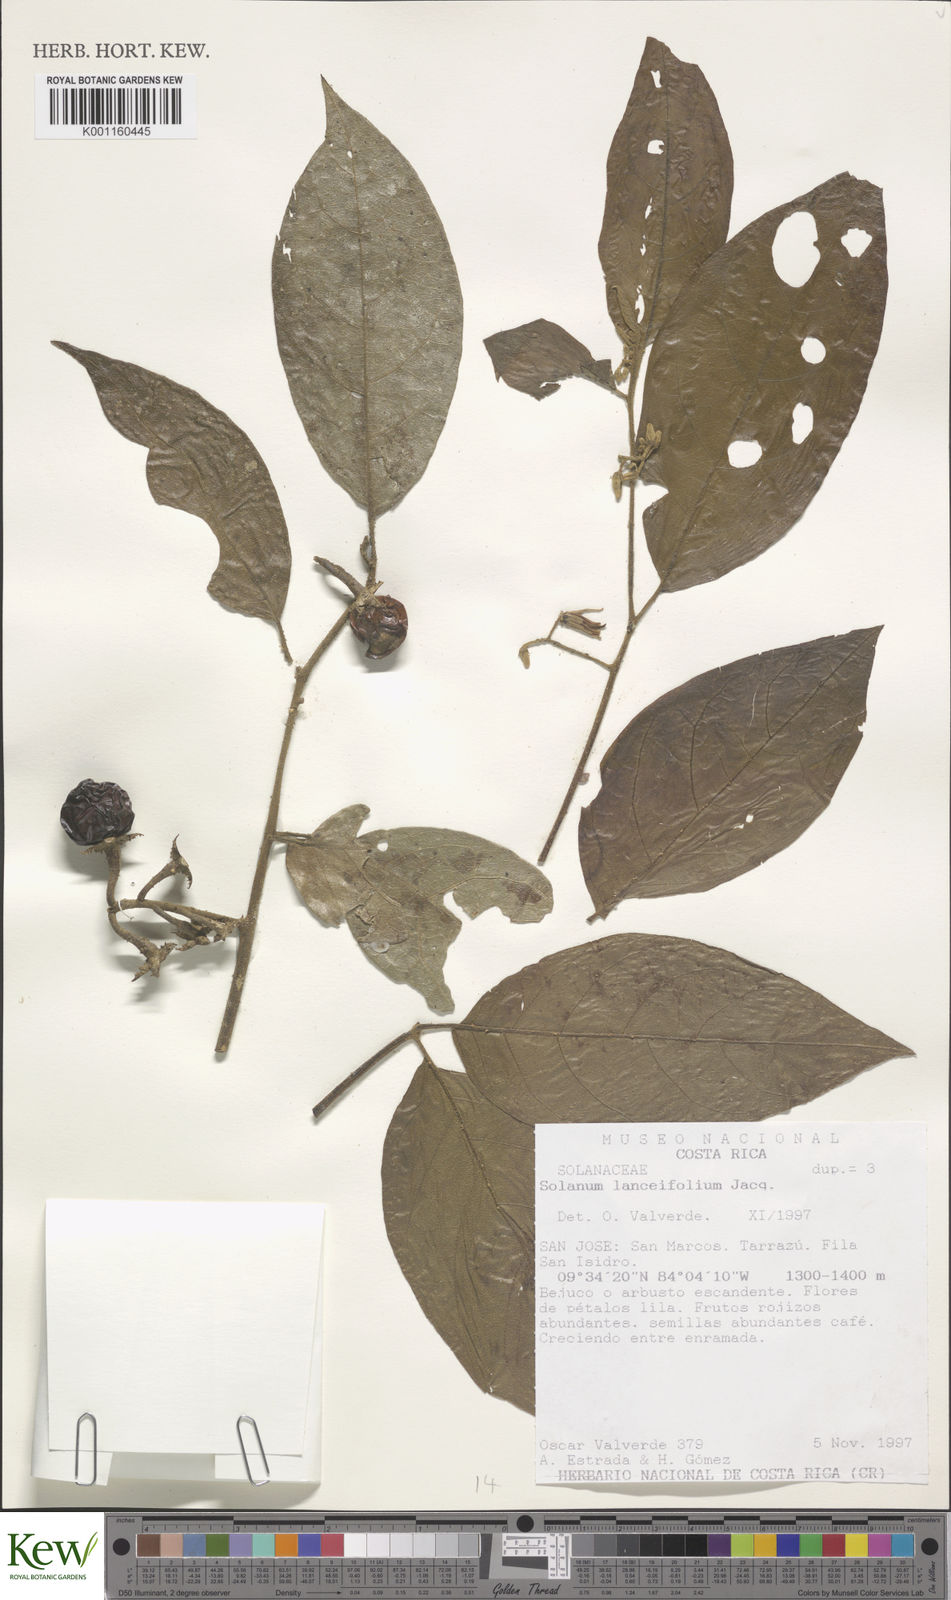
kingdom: Plantae
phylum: Tracheophyta
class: Magnoliopsida
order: Solanales
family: Solanaceae
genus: Solanum
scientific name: Solanum lanceifolium
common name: Lanceleaf nightshade
